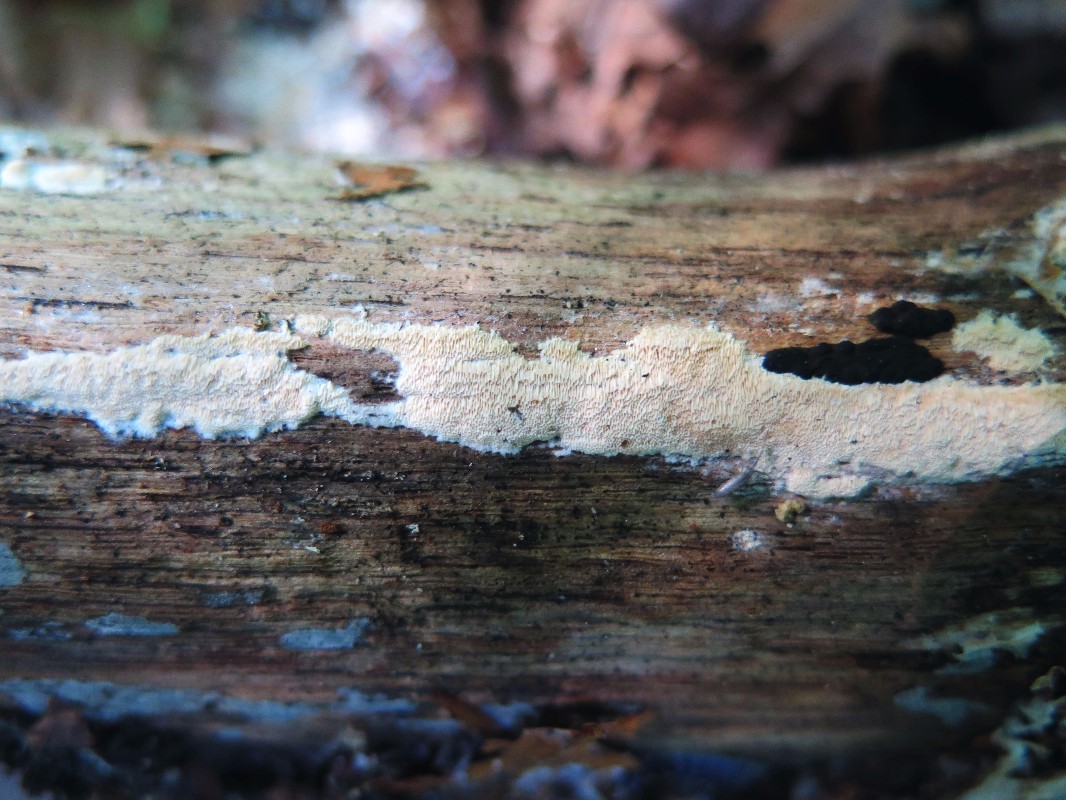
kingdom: Fungi
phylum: Basidiomycota
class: Agaricomycetes
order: Hymenochaetales
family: Schizoporaceae
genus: Xylodon
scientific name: Xylodon flaviporus
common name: gulporet tandsvamp
